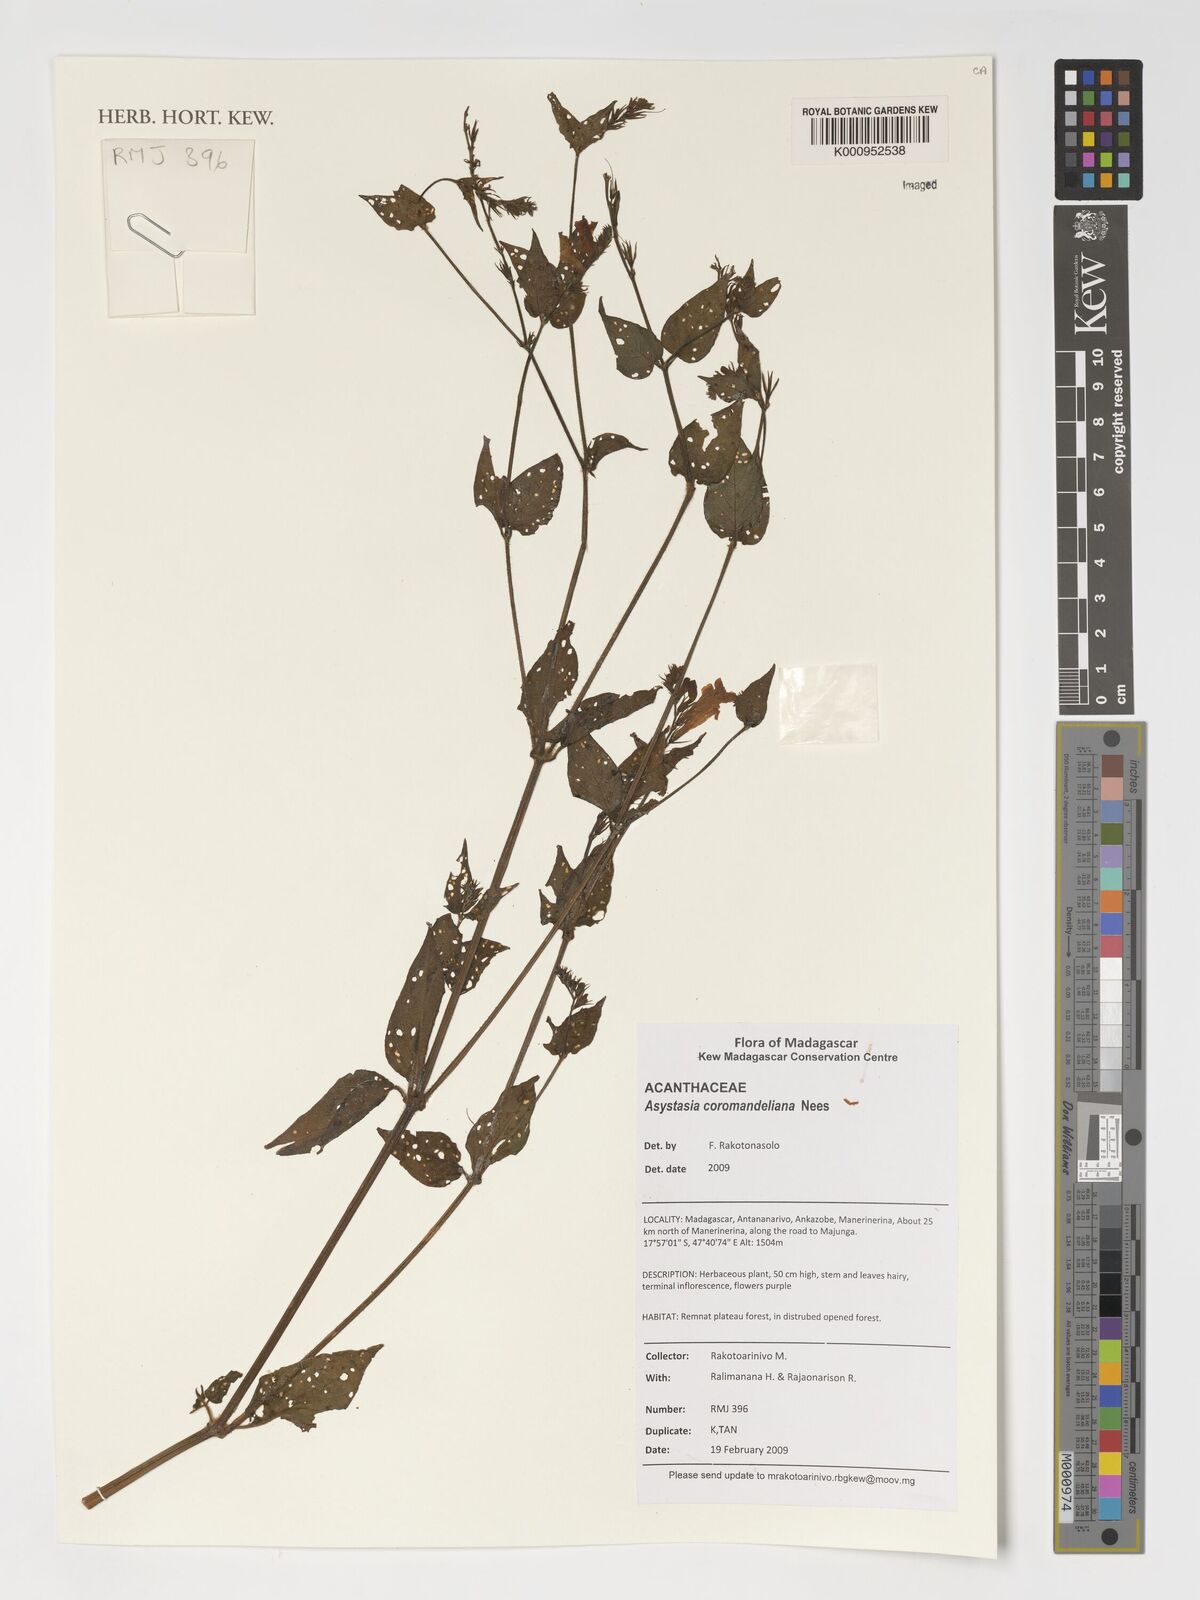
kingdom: Plantae
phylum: Tracheophyta
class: Magnoliopsida
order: Lamiales
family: Acanthaceae
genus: Asystasia
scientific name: Asystasia gangetica
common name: Chinese violet
